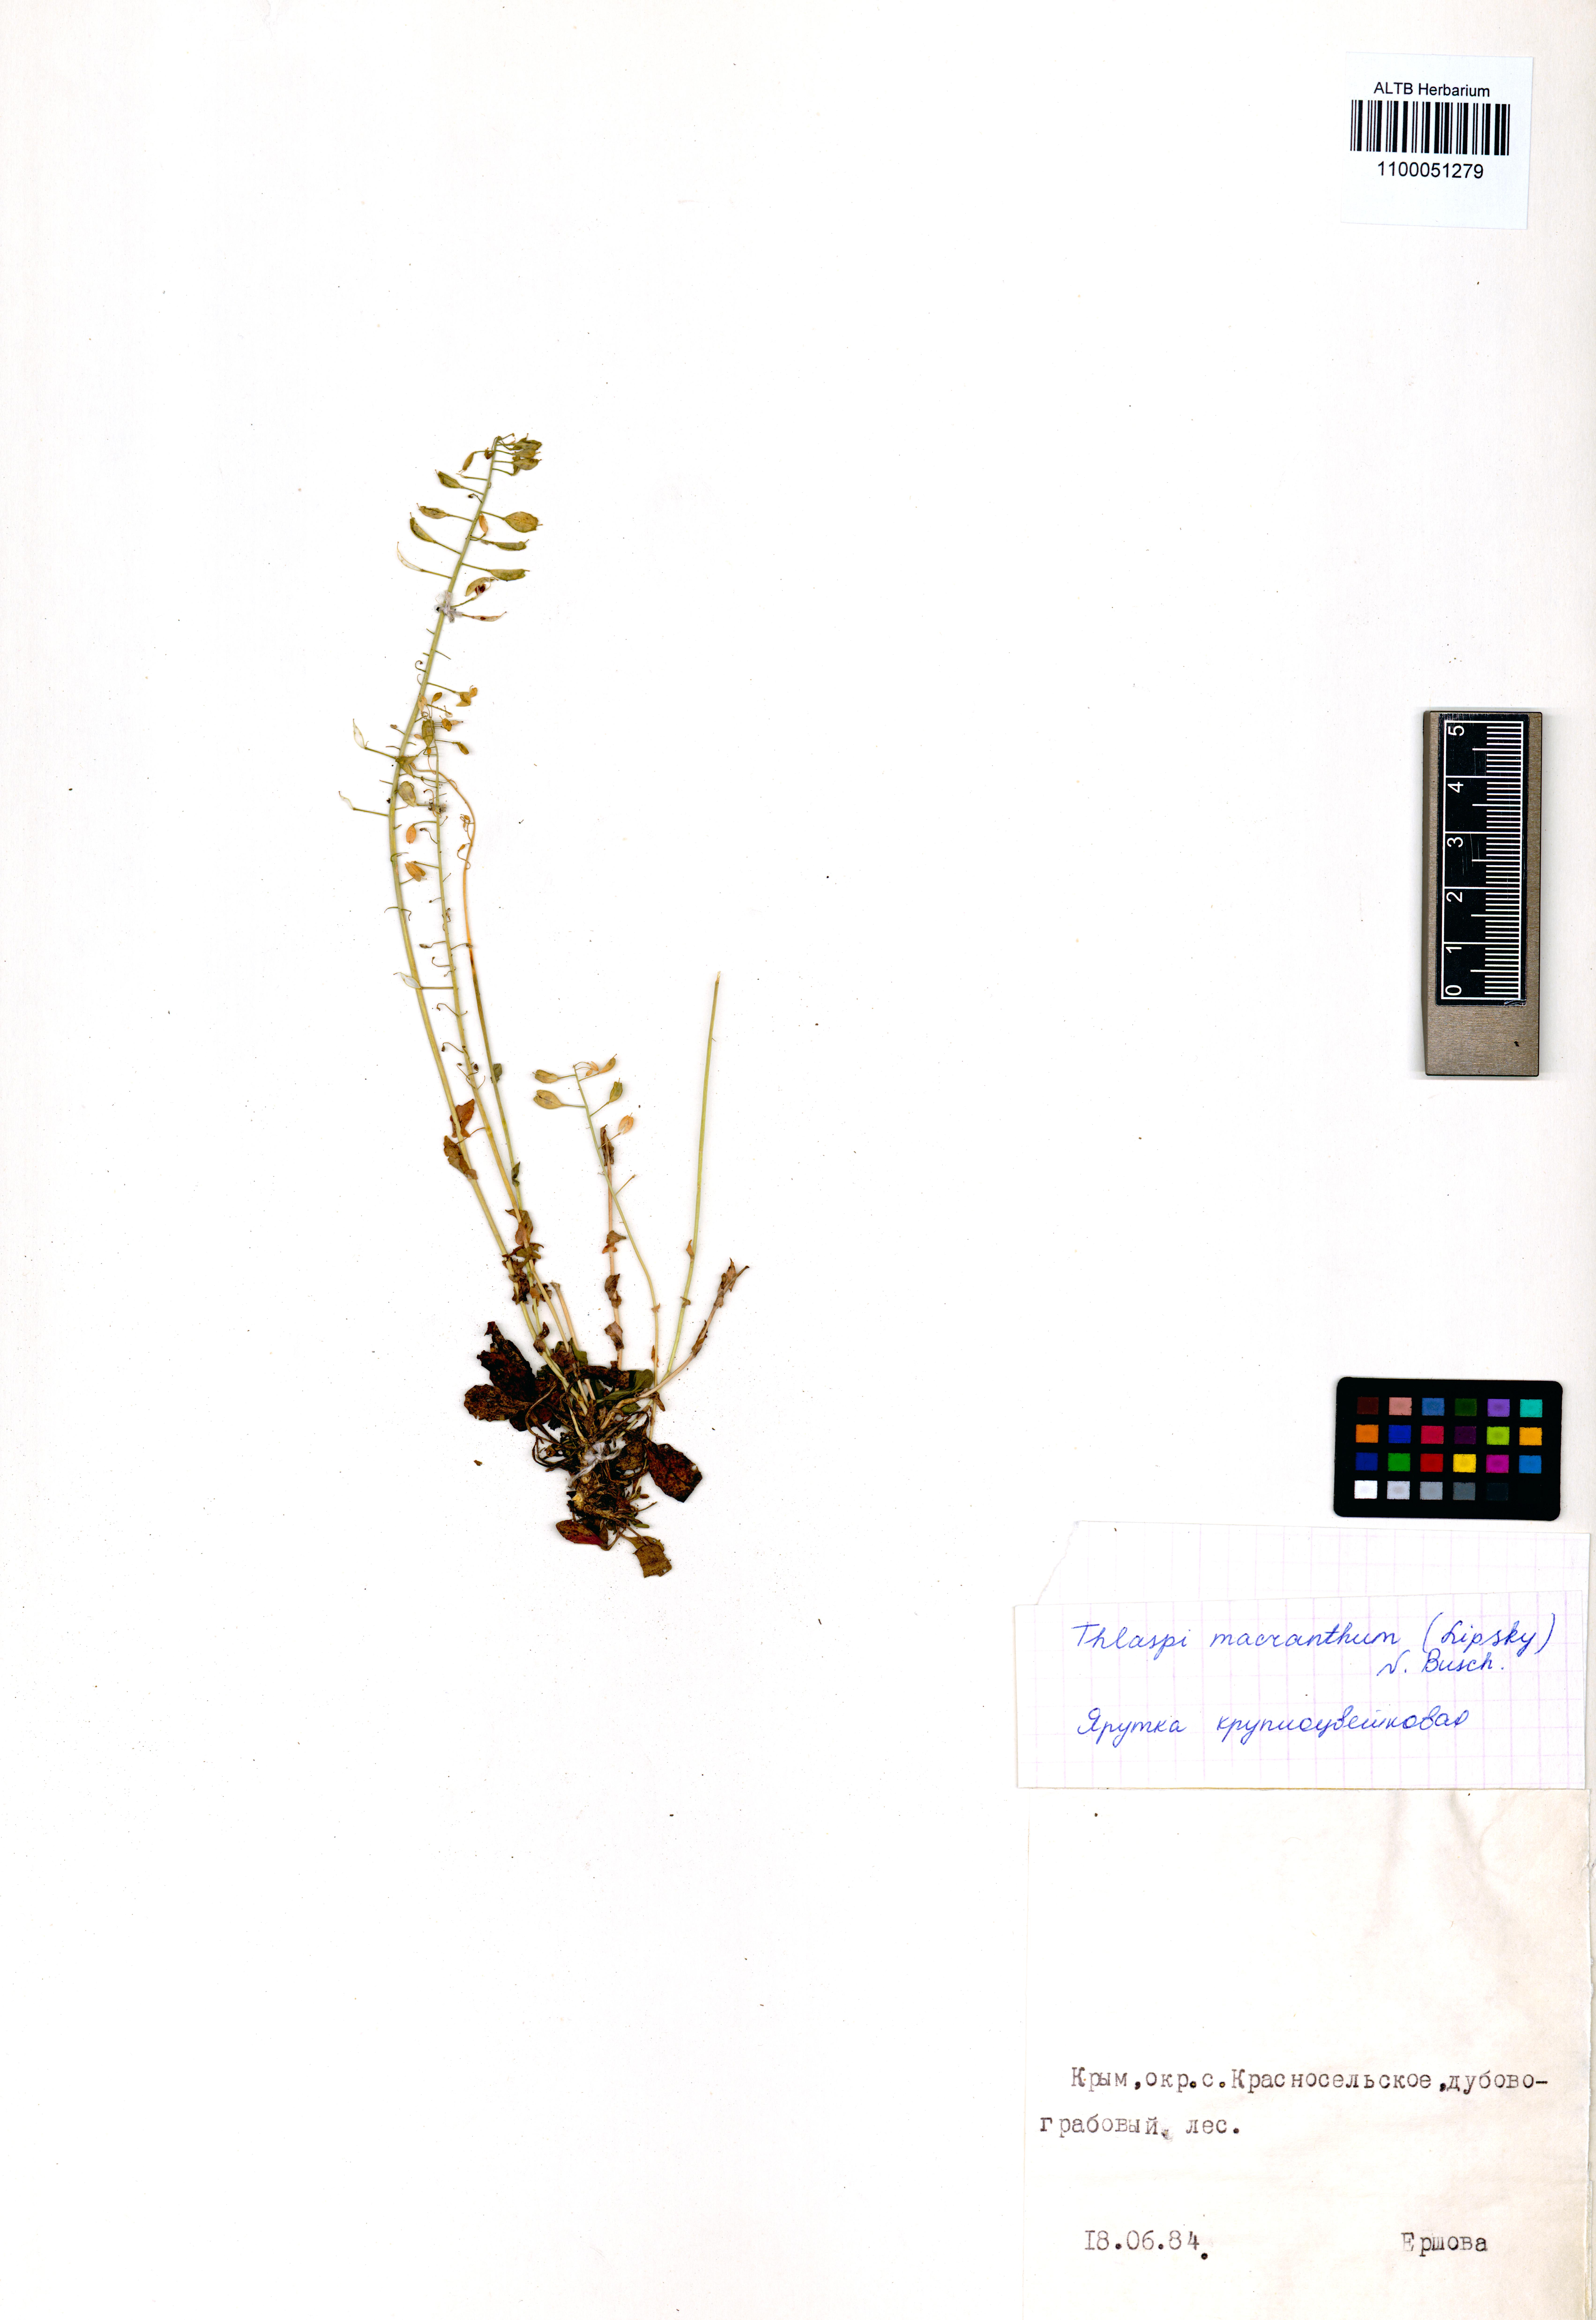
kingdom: Plantae
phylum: Tracheophyta
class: Magnoliopsida
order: Brassicales
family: Brassicaceae
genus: Noccaea
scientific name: Noccaea macrantha
